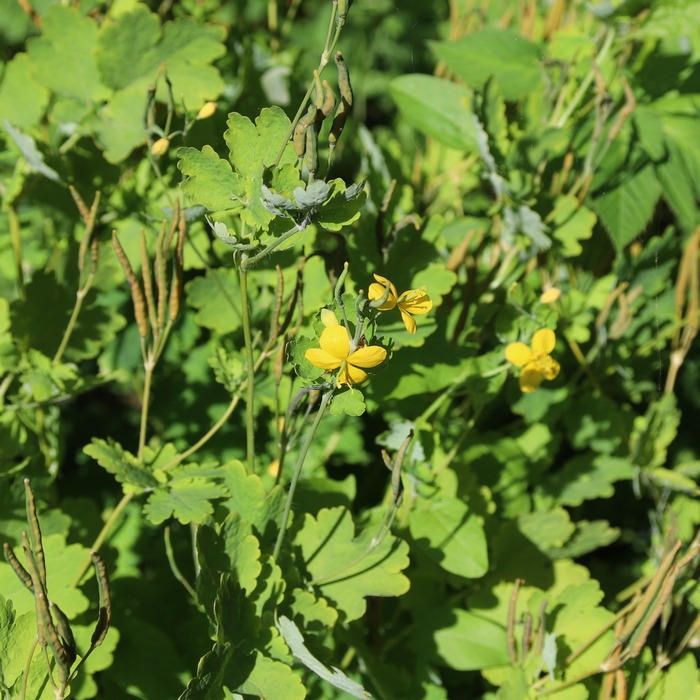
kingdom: Plantae
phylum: Tracheophyta
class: Magnoliopsida
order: Ranunculales
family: Papaveraceae
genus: Chelidonium
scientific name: Chelidonium majus
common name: Svaleurt
